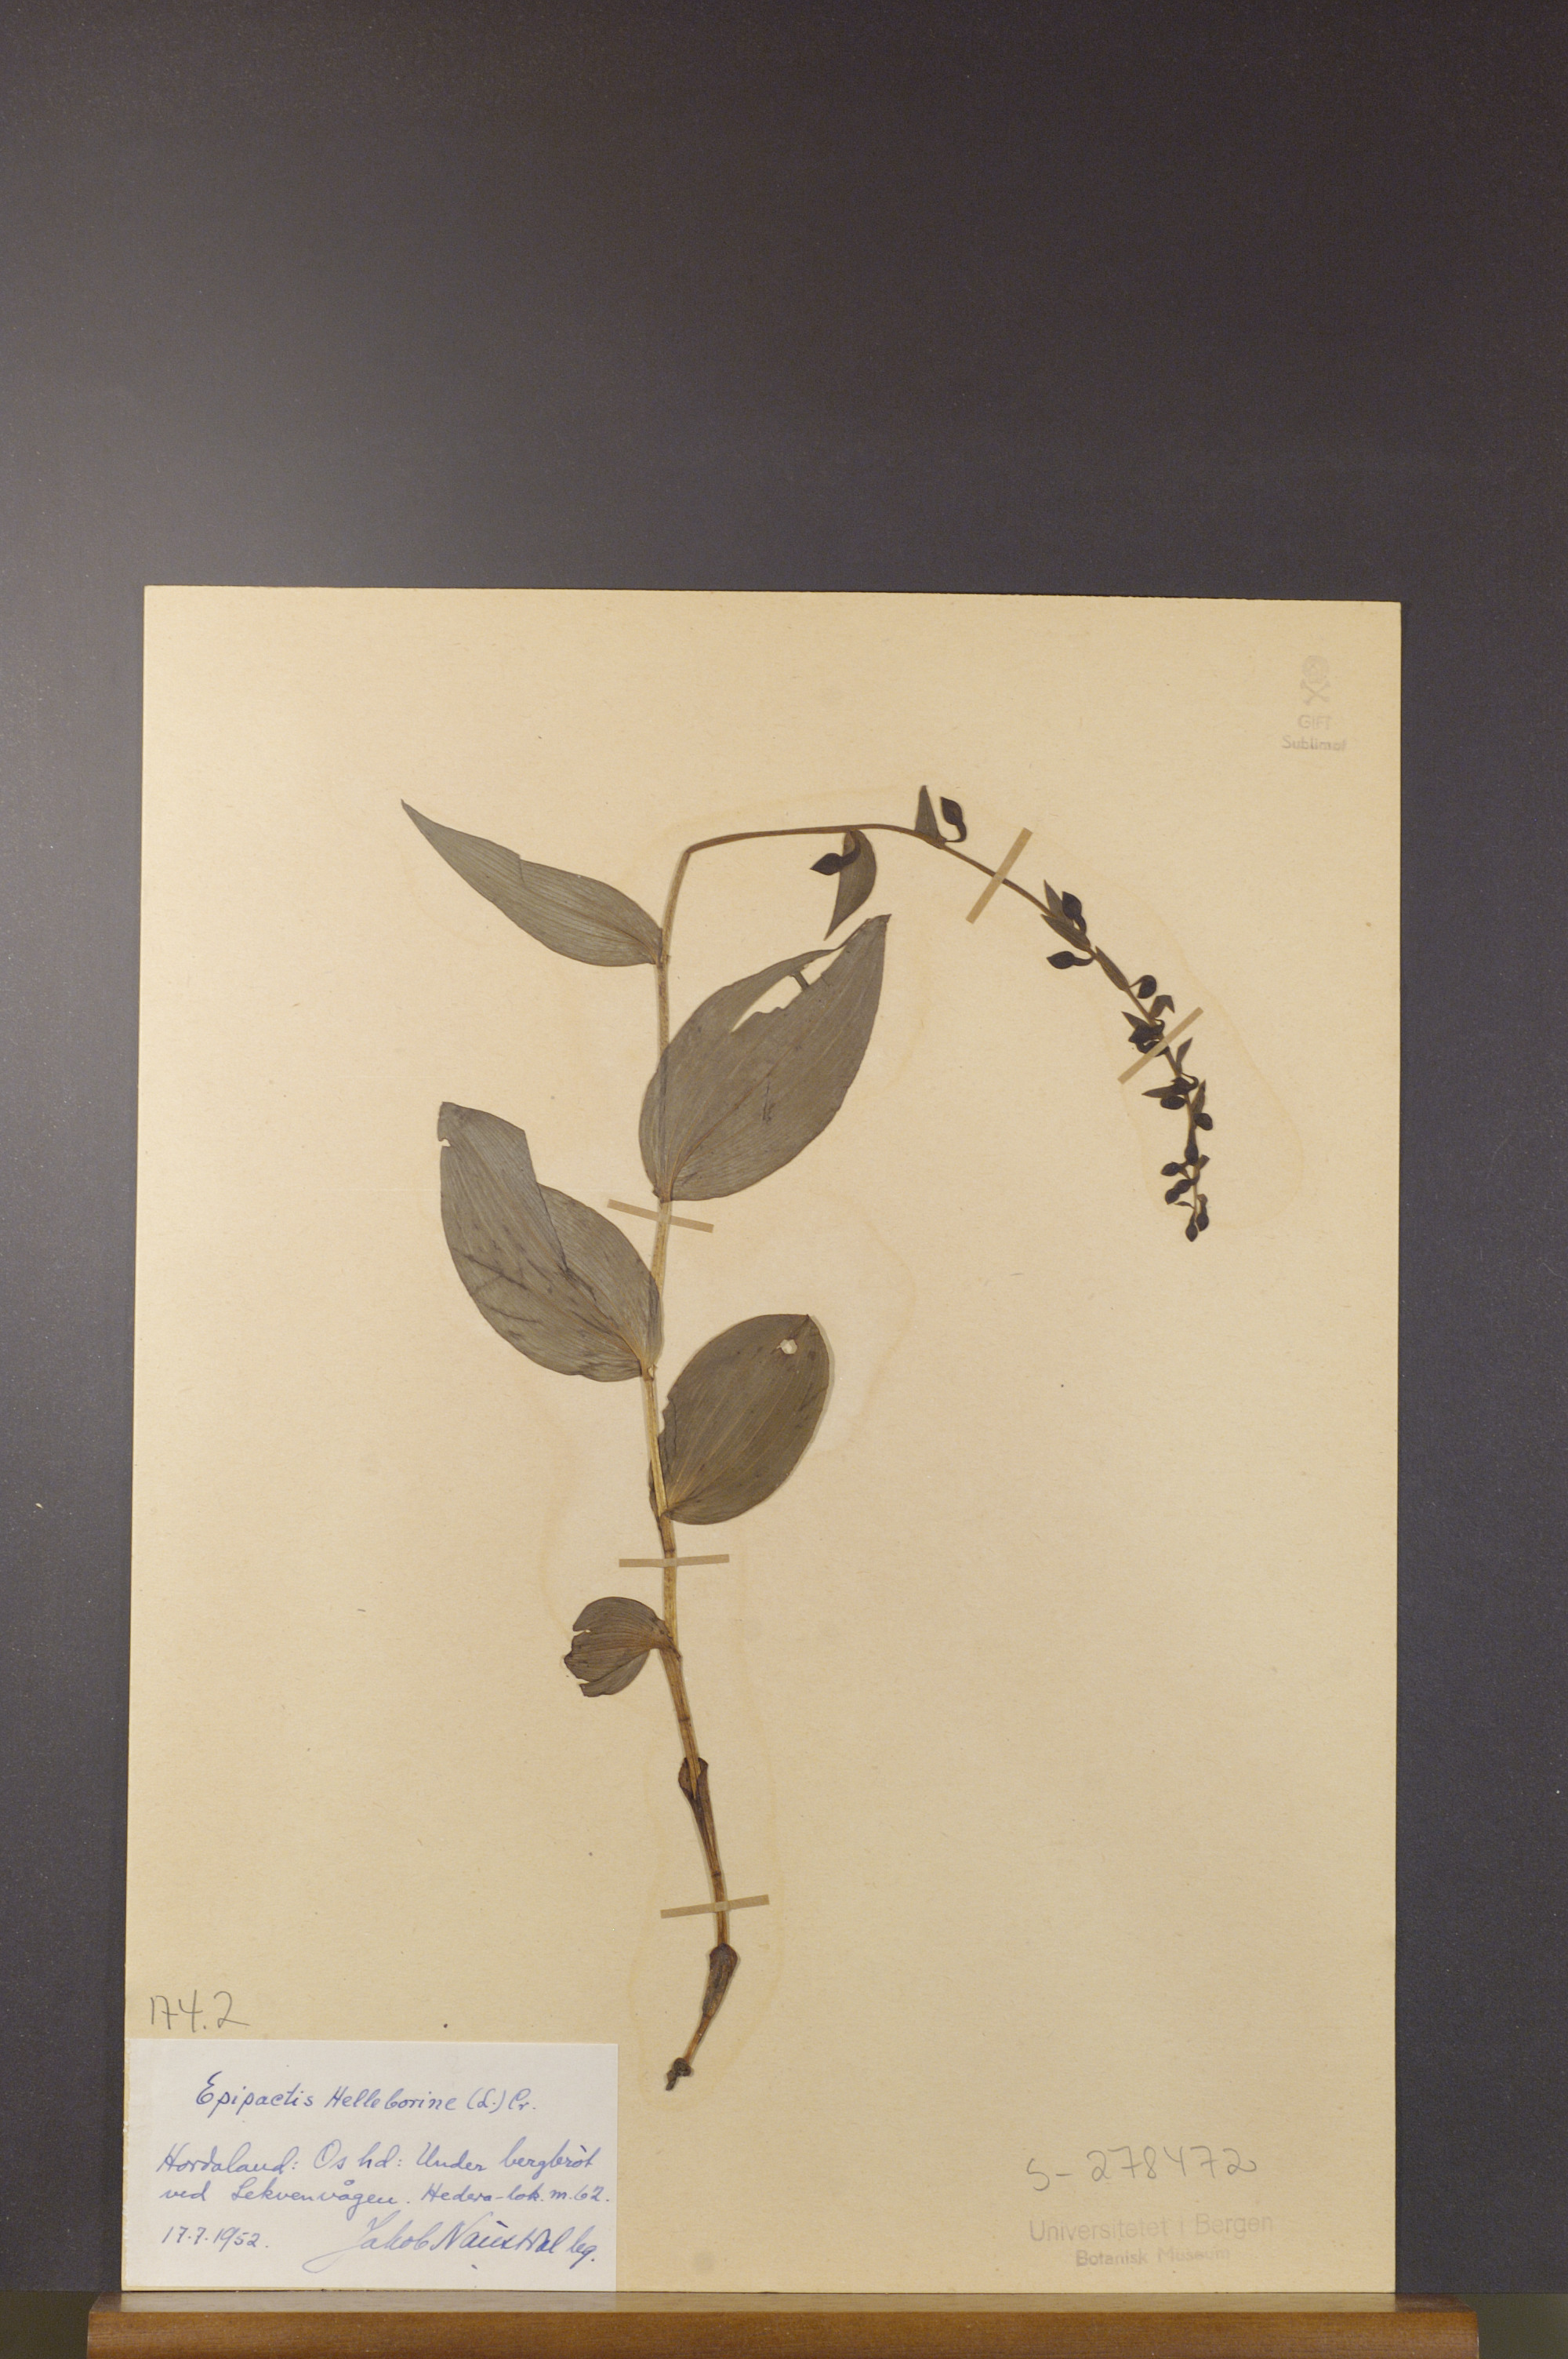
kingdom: Plantae
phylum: Tracheophyta
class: Liliopsida
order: Asparagales
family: Orchidaceae
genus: Epipactis
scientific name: Epipactis helleborine
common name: Broad-leaved helleborine
